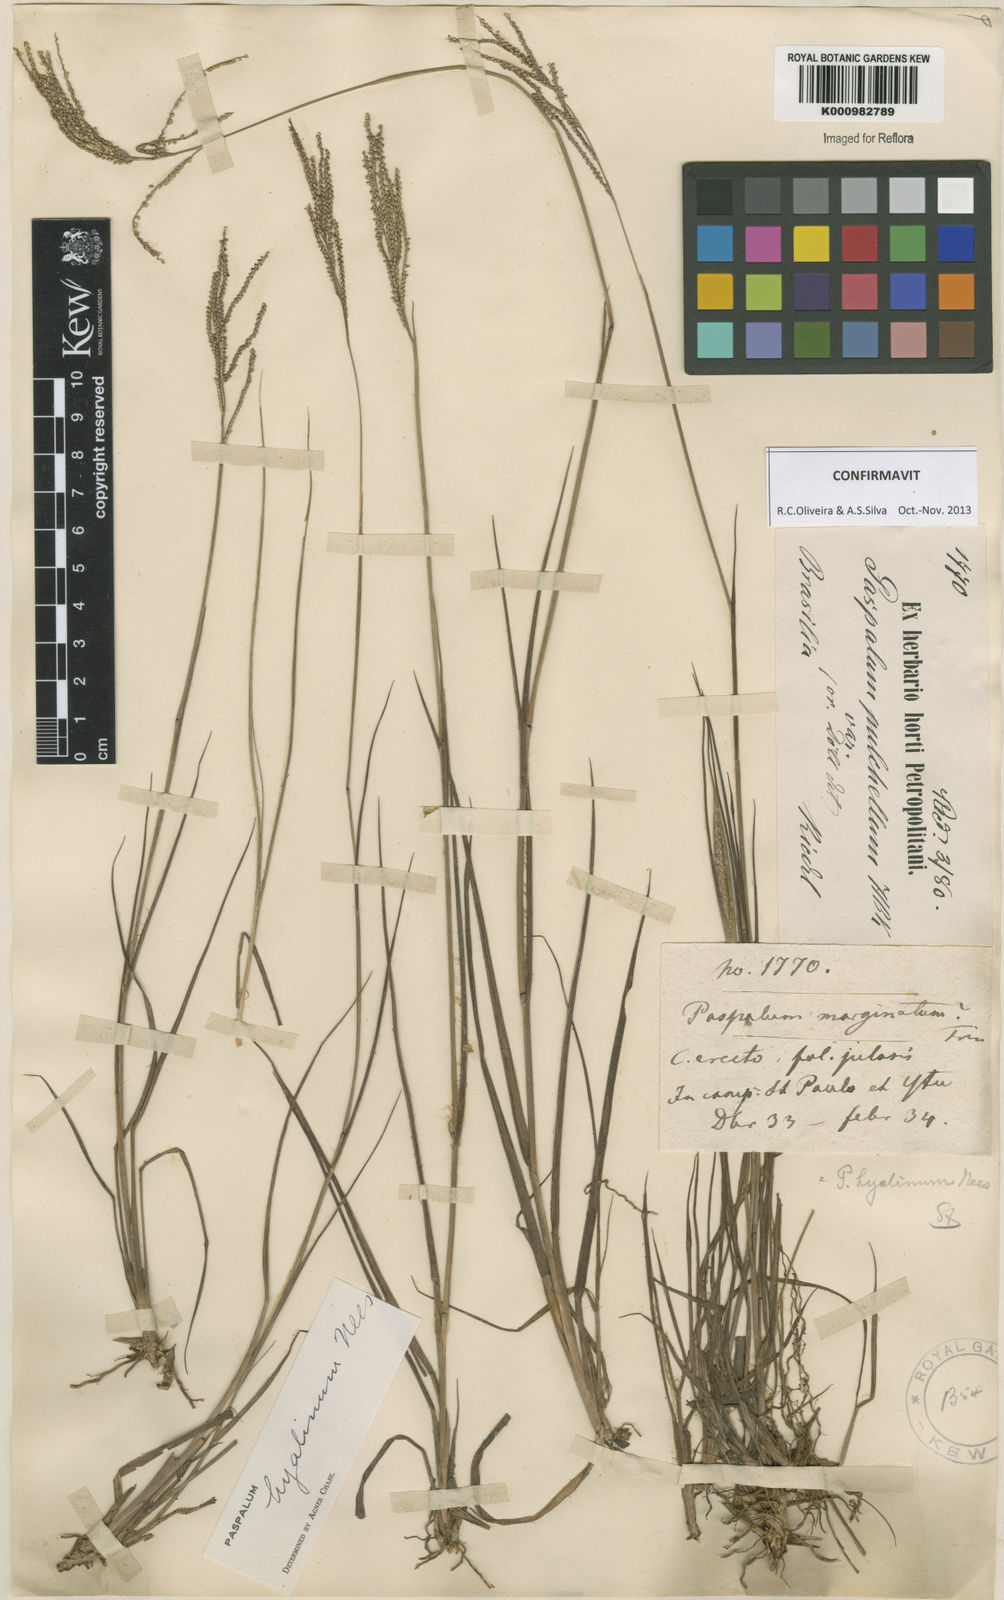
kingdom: Plantae
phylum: Tracheophyta
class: Liliopsida
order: Poales
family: Poaceae
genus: Paspalum
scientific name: Paspalum hyalinum
